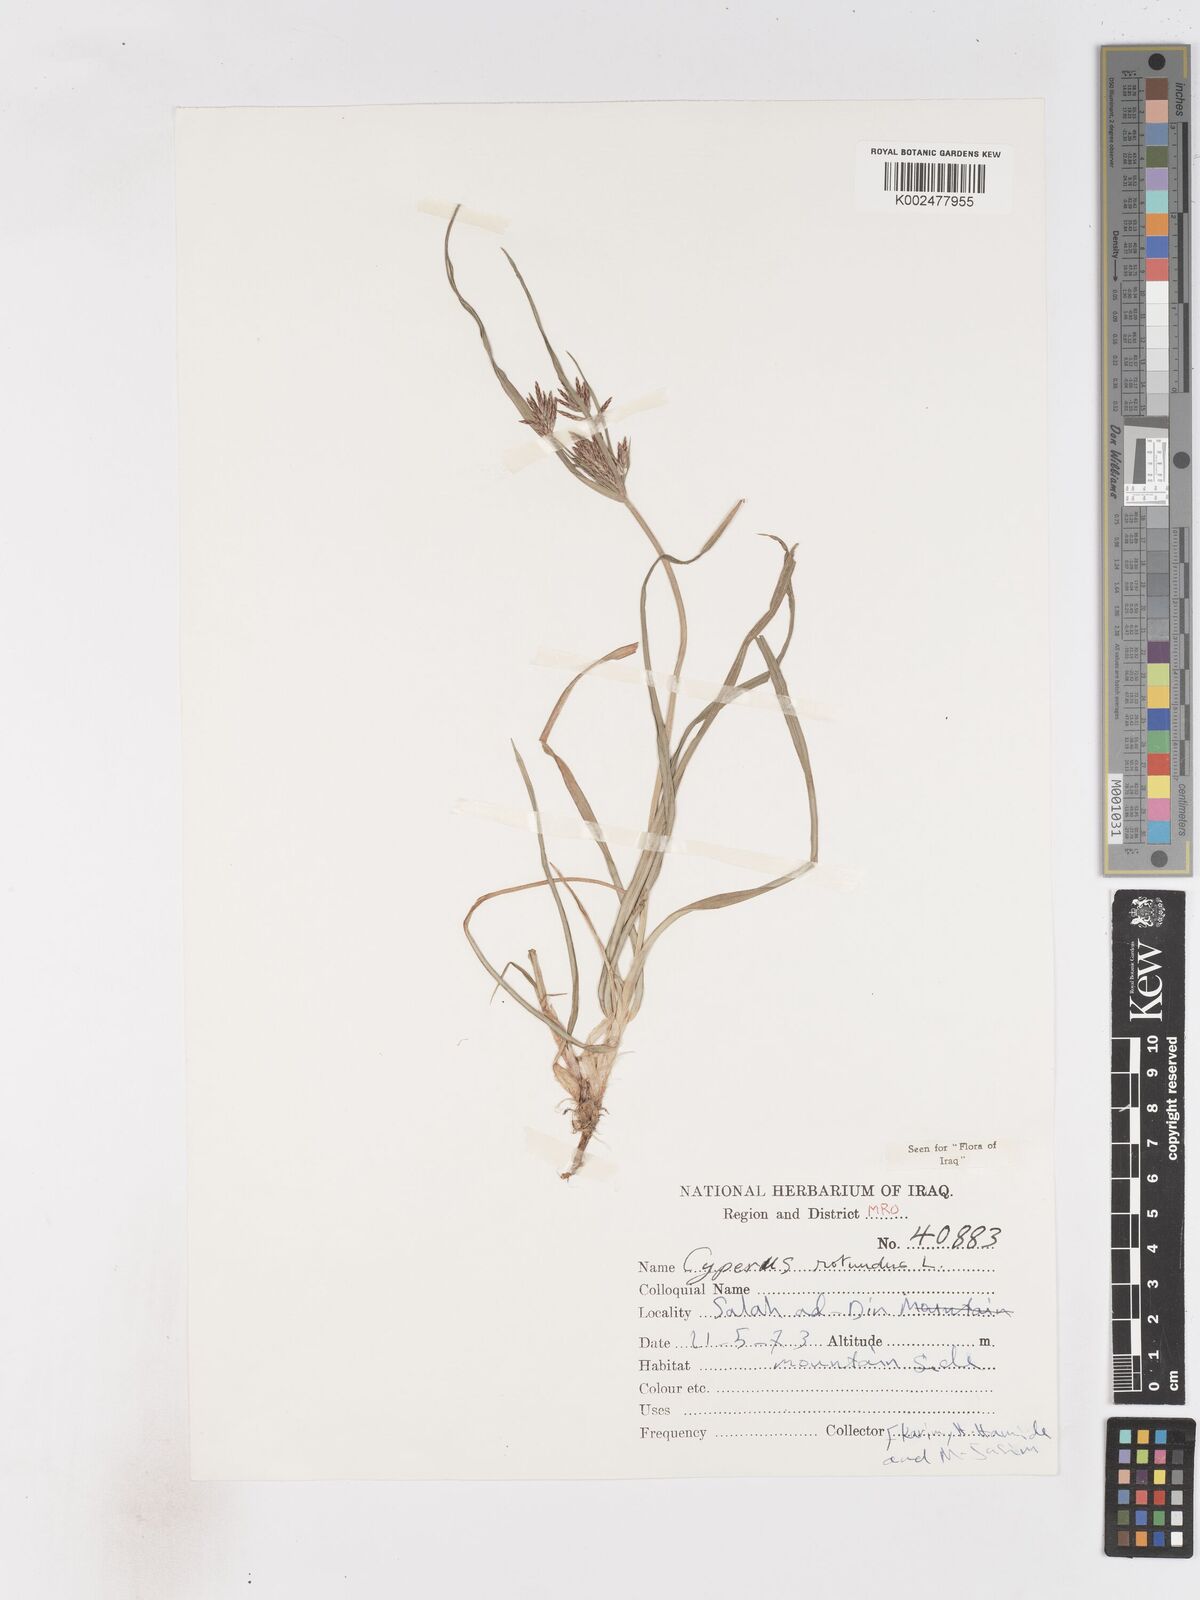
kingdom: Plantae
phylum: Tracheophyta
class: Liliopsida
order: Poales
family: Cyperaceae
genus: Cyperus
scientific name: Cyperus rotundus
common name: Nutgrass
